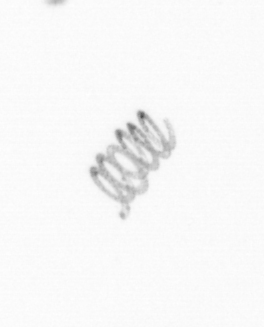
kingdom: Chromista
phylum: Ochrophyta
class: Bacillariophyceae
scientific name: Bacillariophyceae
